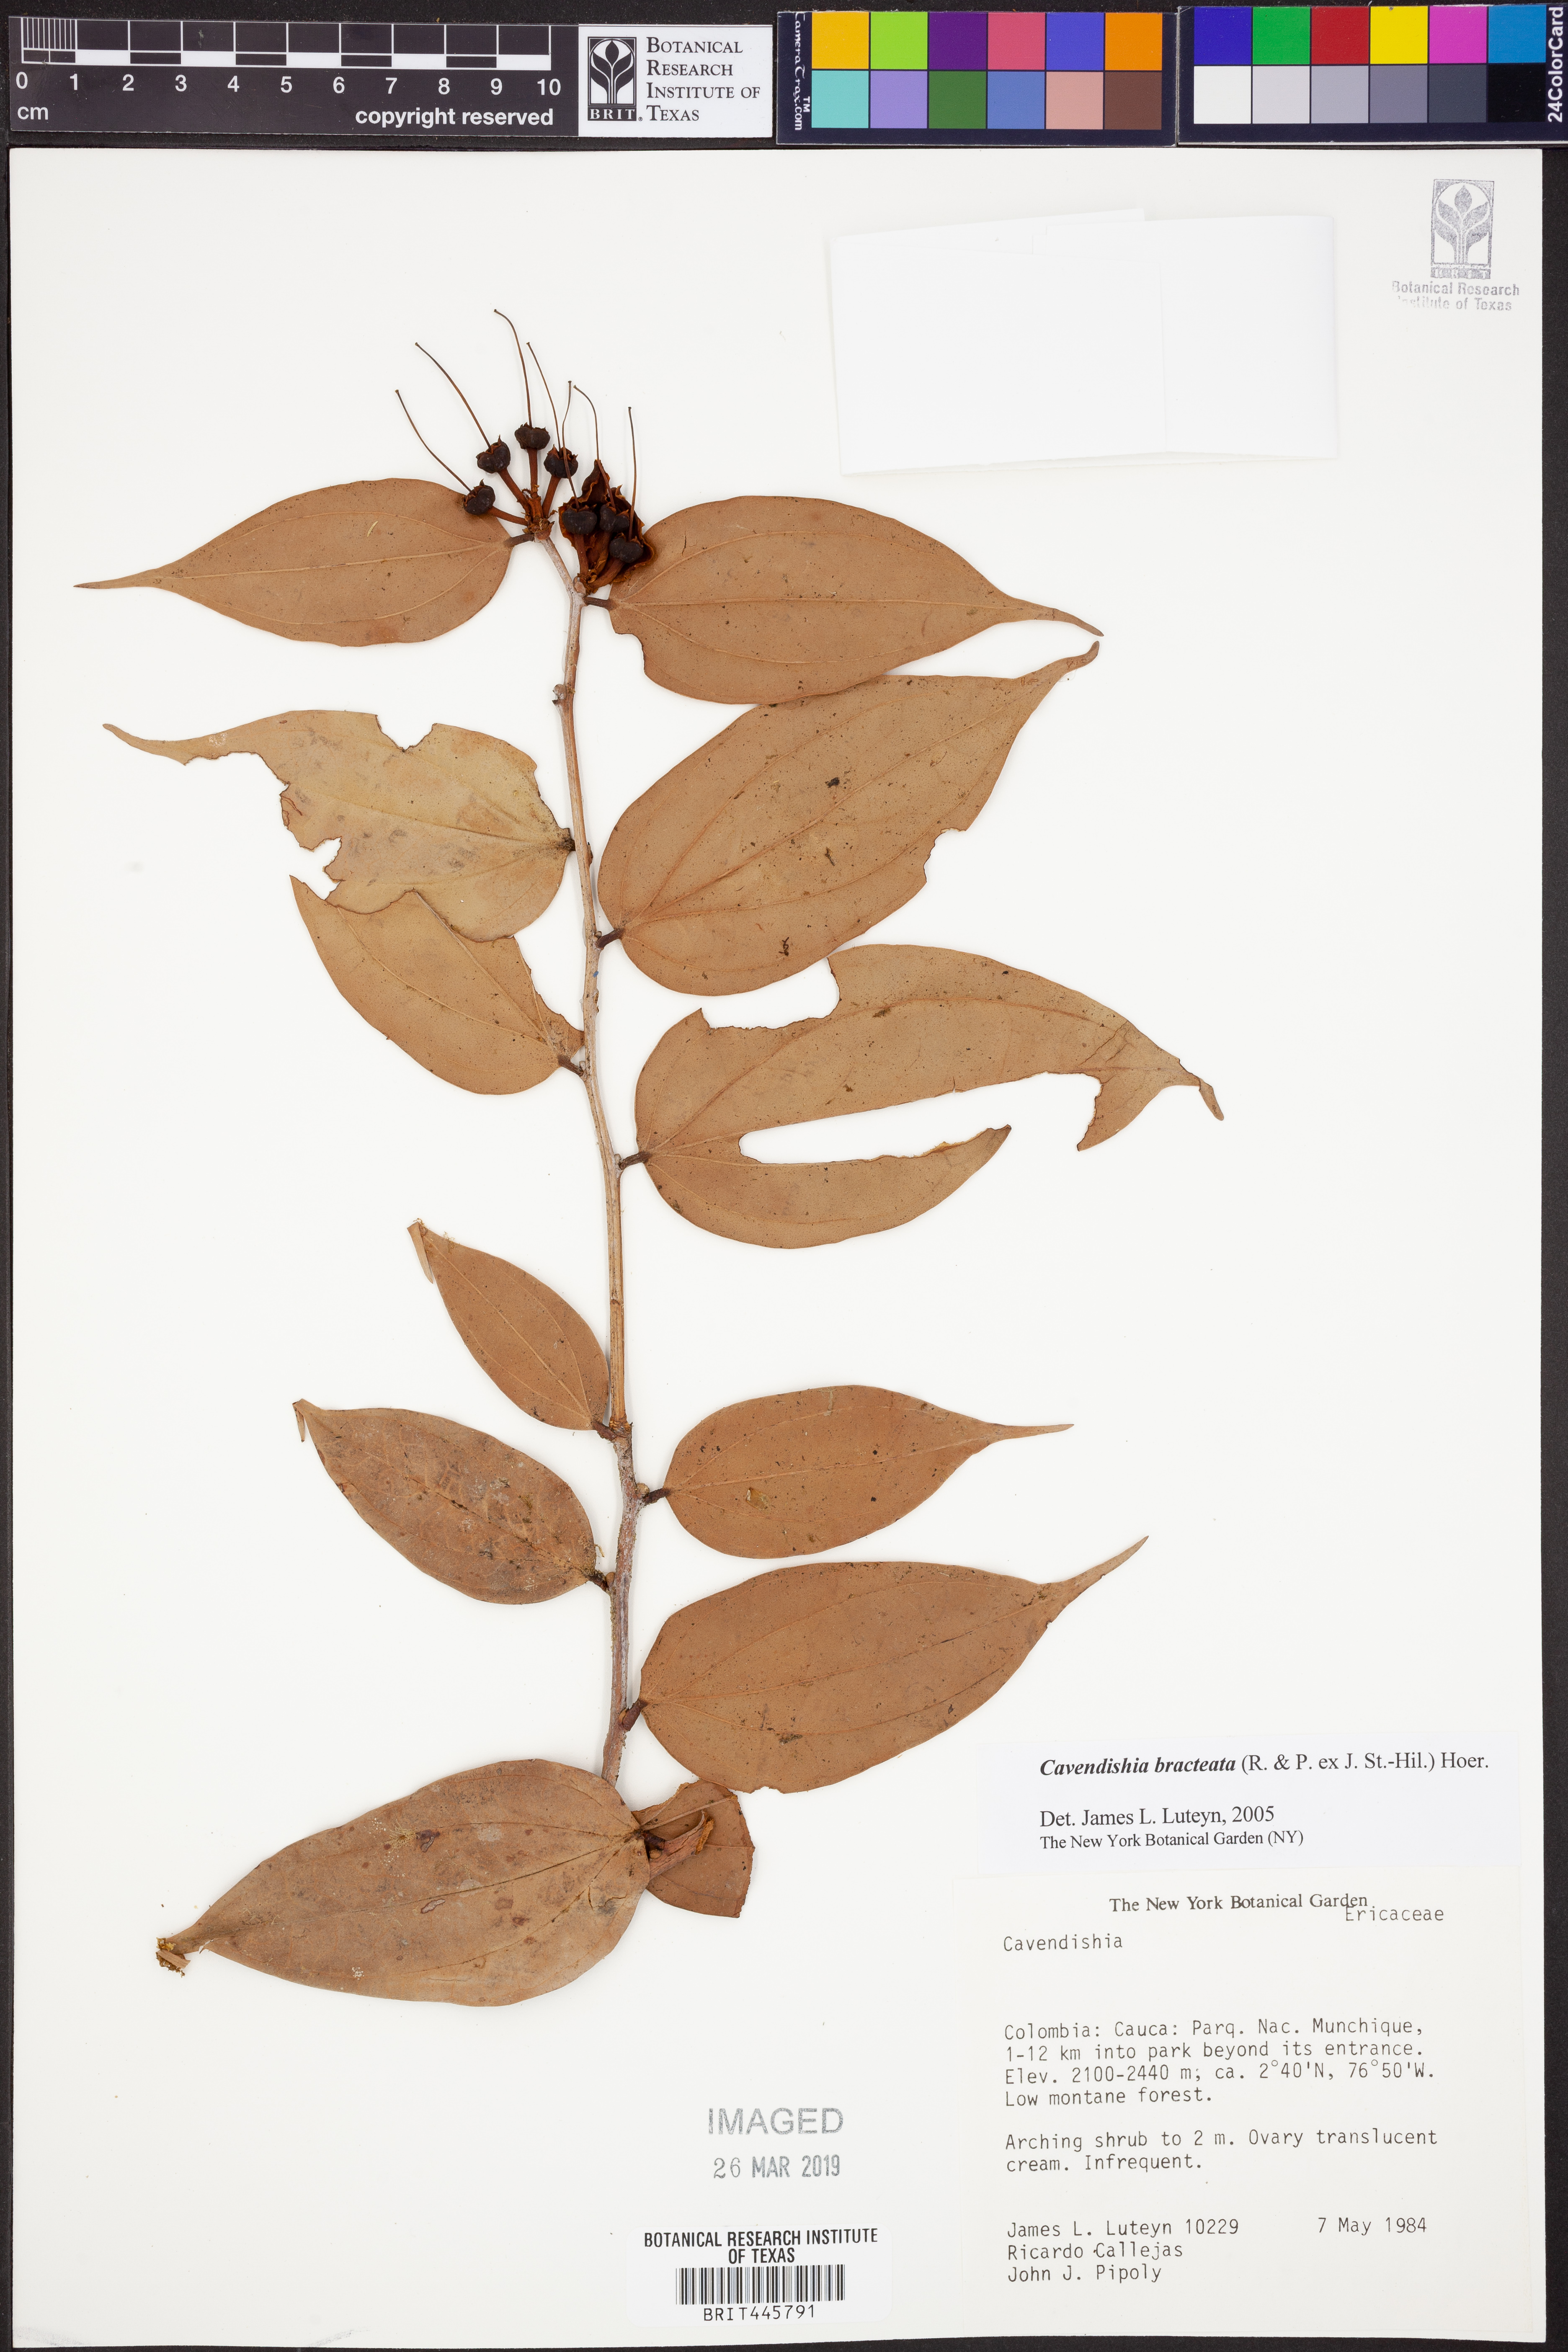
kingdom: Plantae
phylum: Tracheophyta
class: Magnoliopsida
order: Ericales
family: Ericaceae
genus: Cavendishia
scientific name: Cavendishia bracteata
